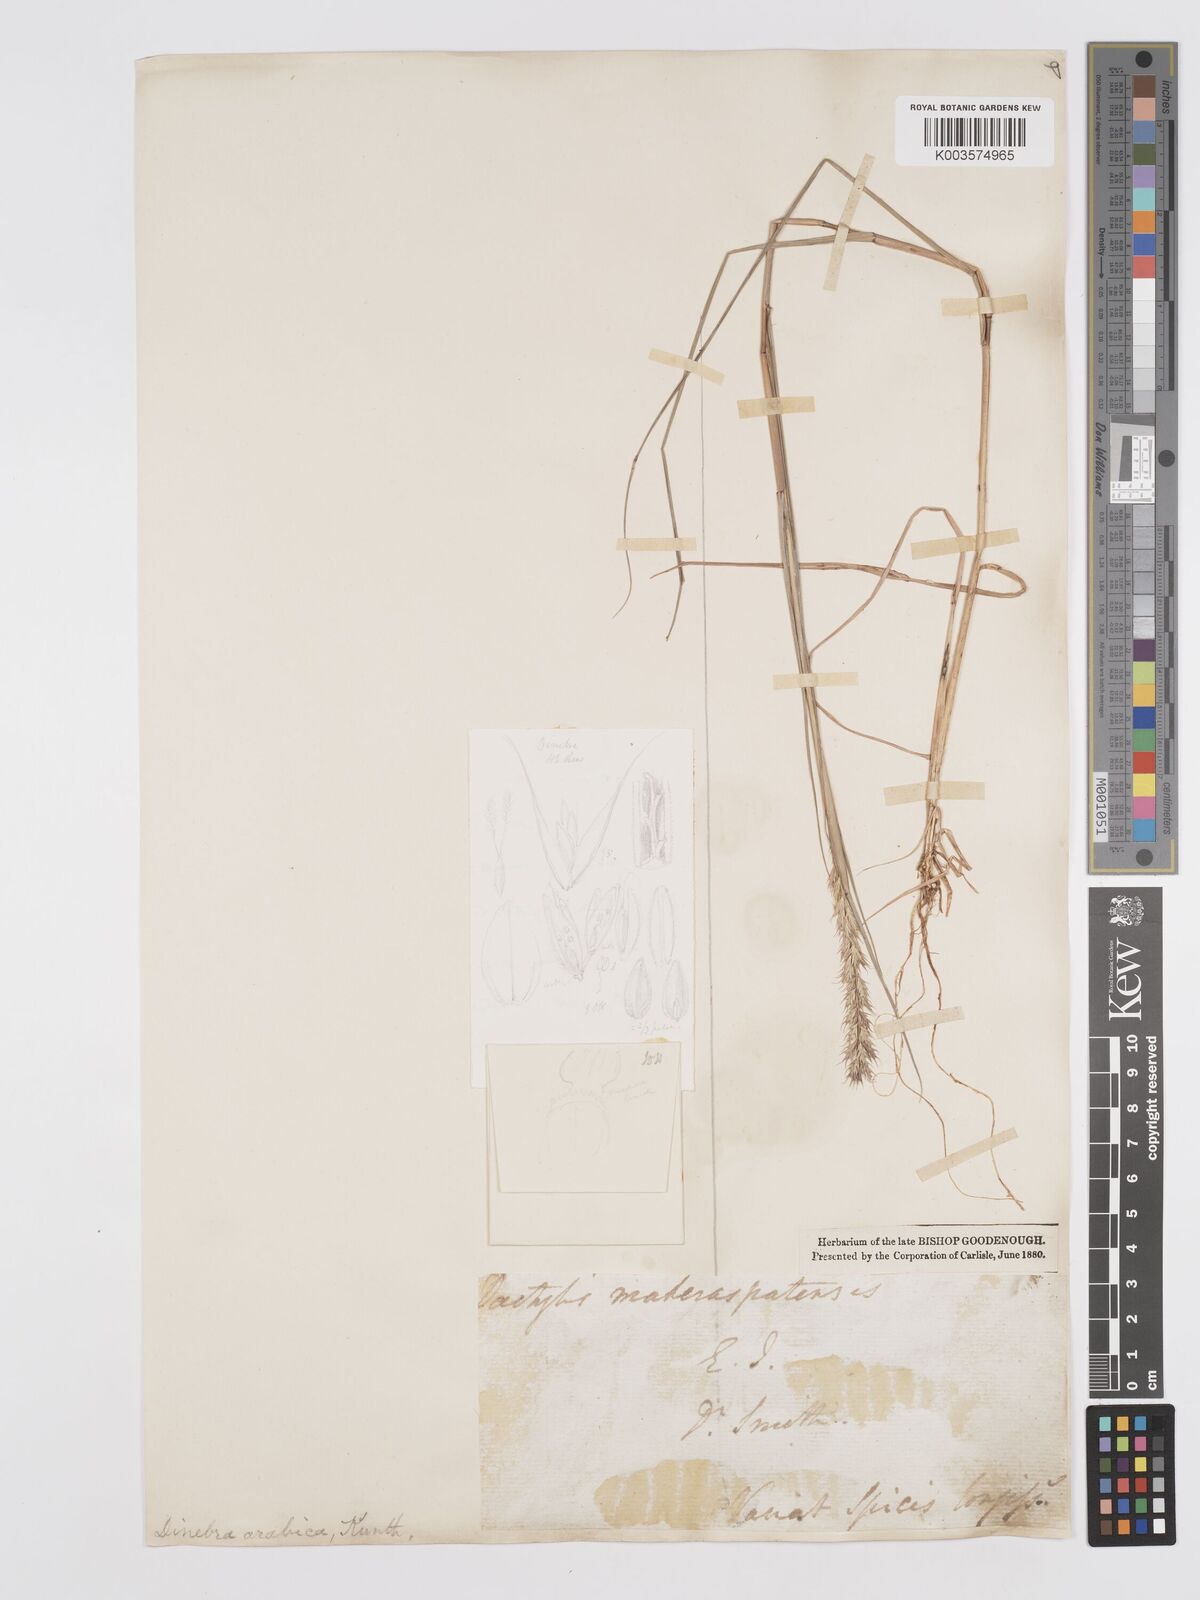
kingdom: Plantae
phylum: Tracheophyta
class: Liliopsida
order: Poales
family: Poaceae
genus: Dinebra
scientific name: Dinebra retroflexa
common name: Viper grass
